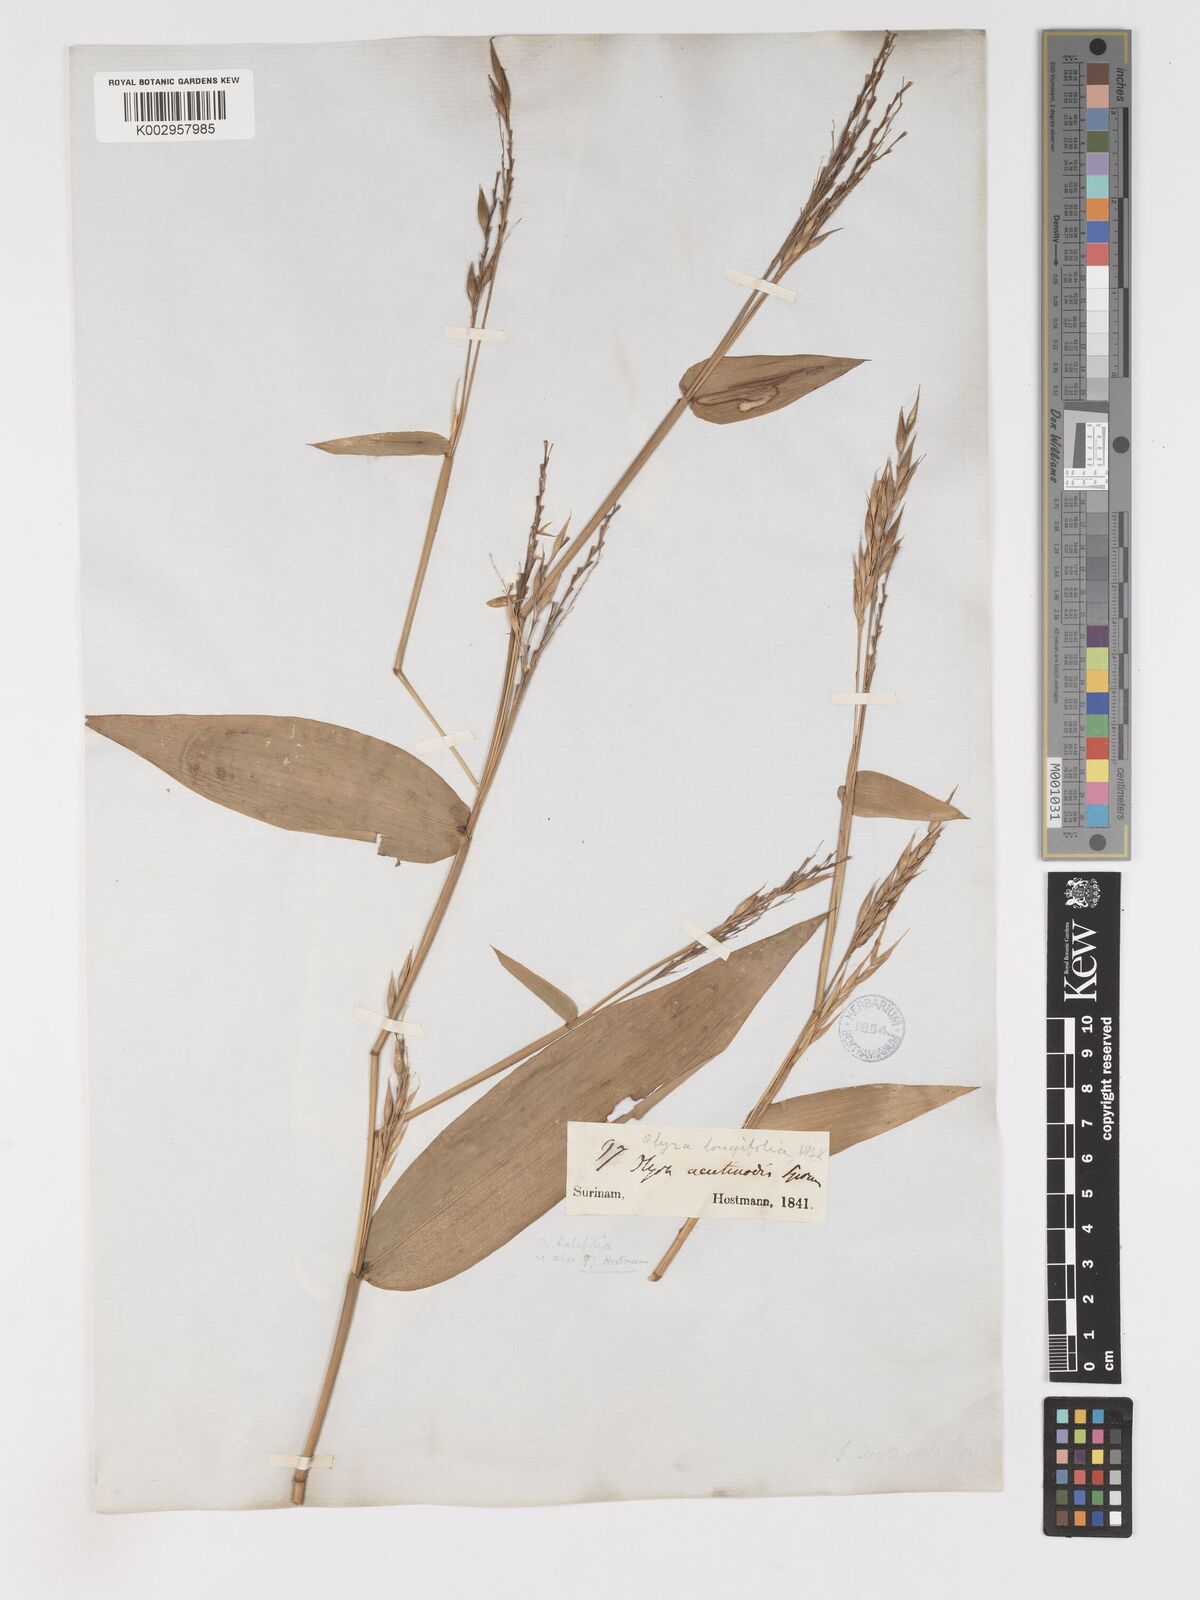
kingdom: Plantae
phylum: Tracheophyta
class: Liliopsida
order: Poales
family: Poaceae
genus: Olyra
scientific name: Olyra longifolia
